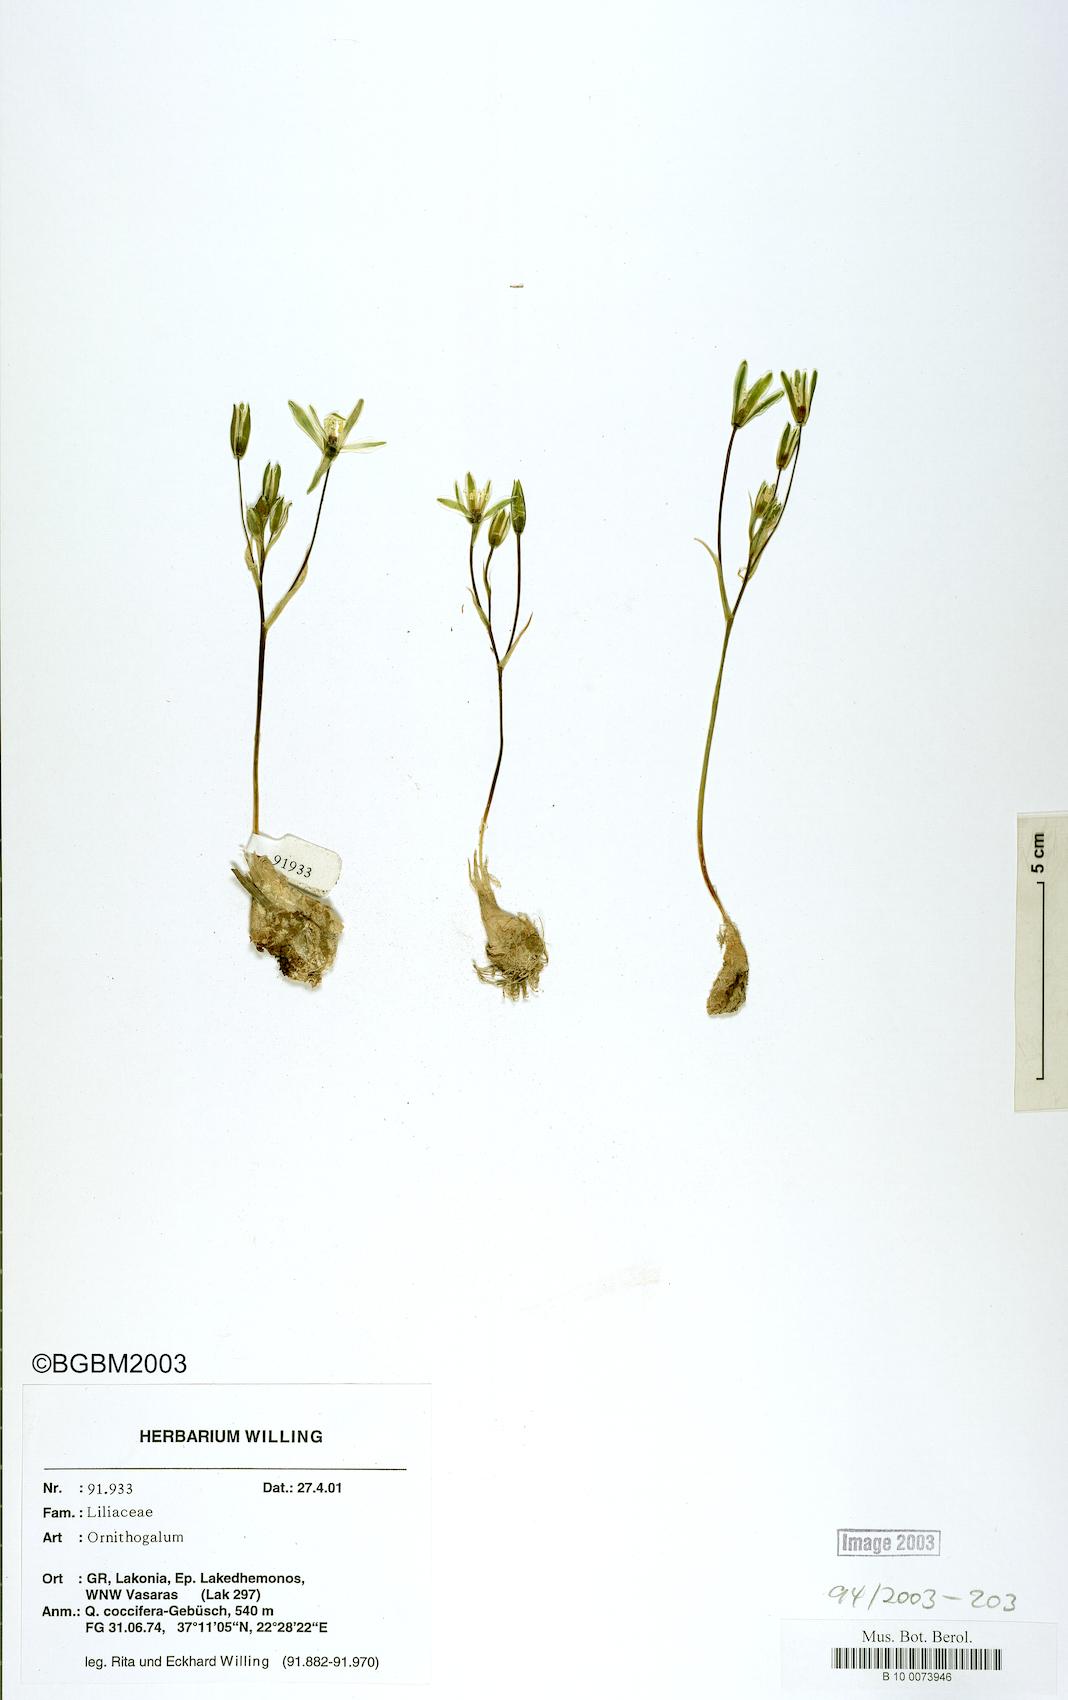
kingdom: Plantae
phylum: Tracheophyta
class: Liliopsida
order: Asparagales
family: Asparagaceae
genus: Ornithogalum
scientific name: Ornithogalum gussonei
